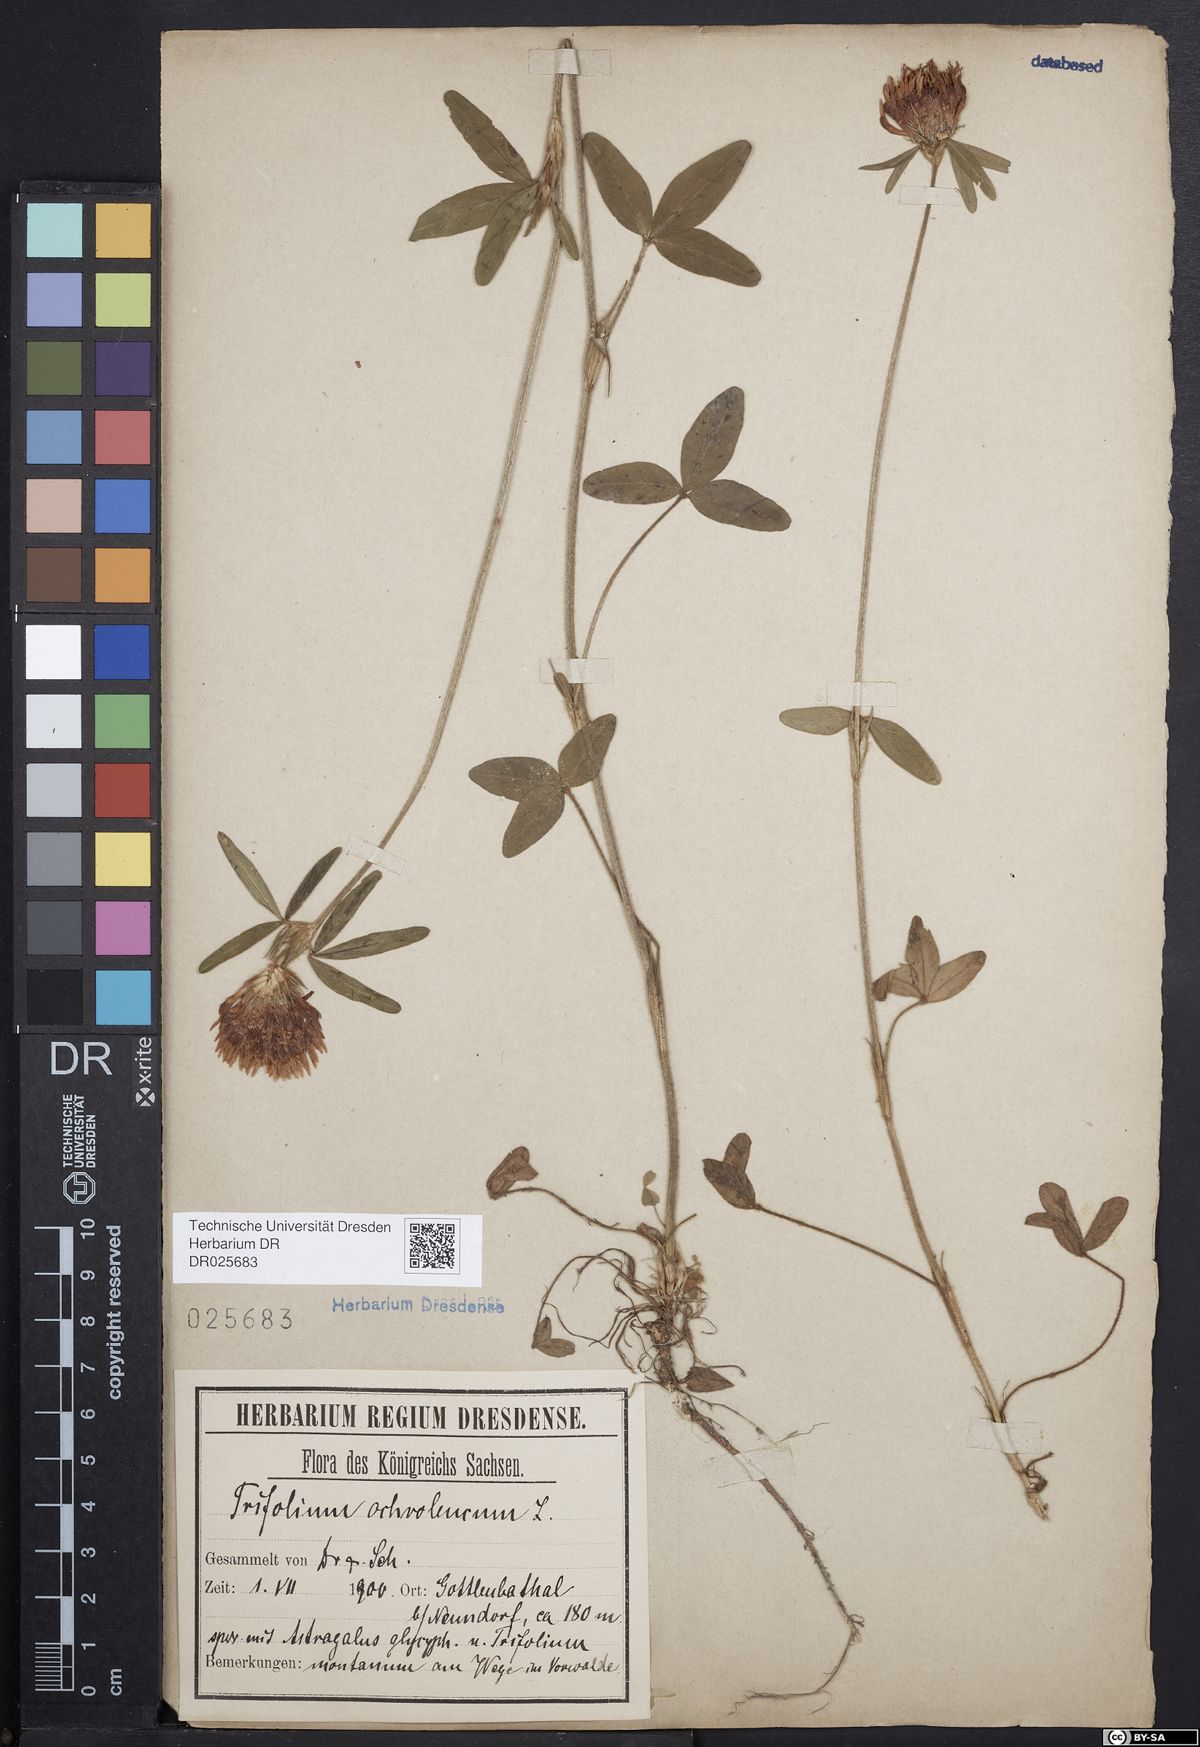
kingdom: Plantae
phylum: Tracheophyta
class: Magnoliopsida
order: Fabales
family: Fabaceae
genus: Trifolium
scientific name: Trifolium ochroleucon
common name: Sulphur clover
